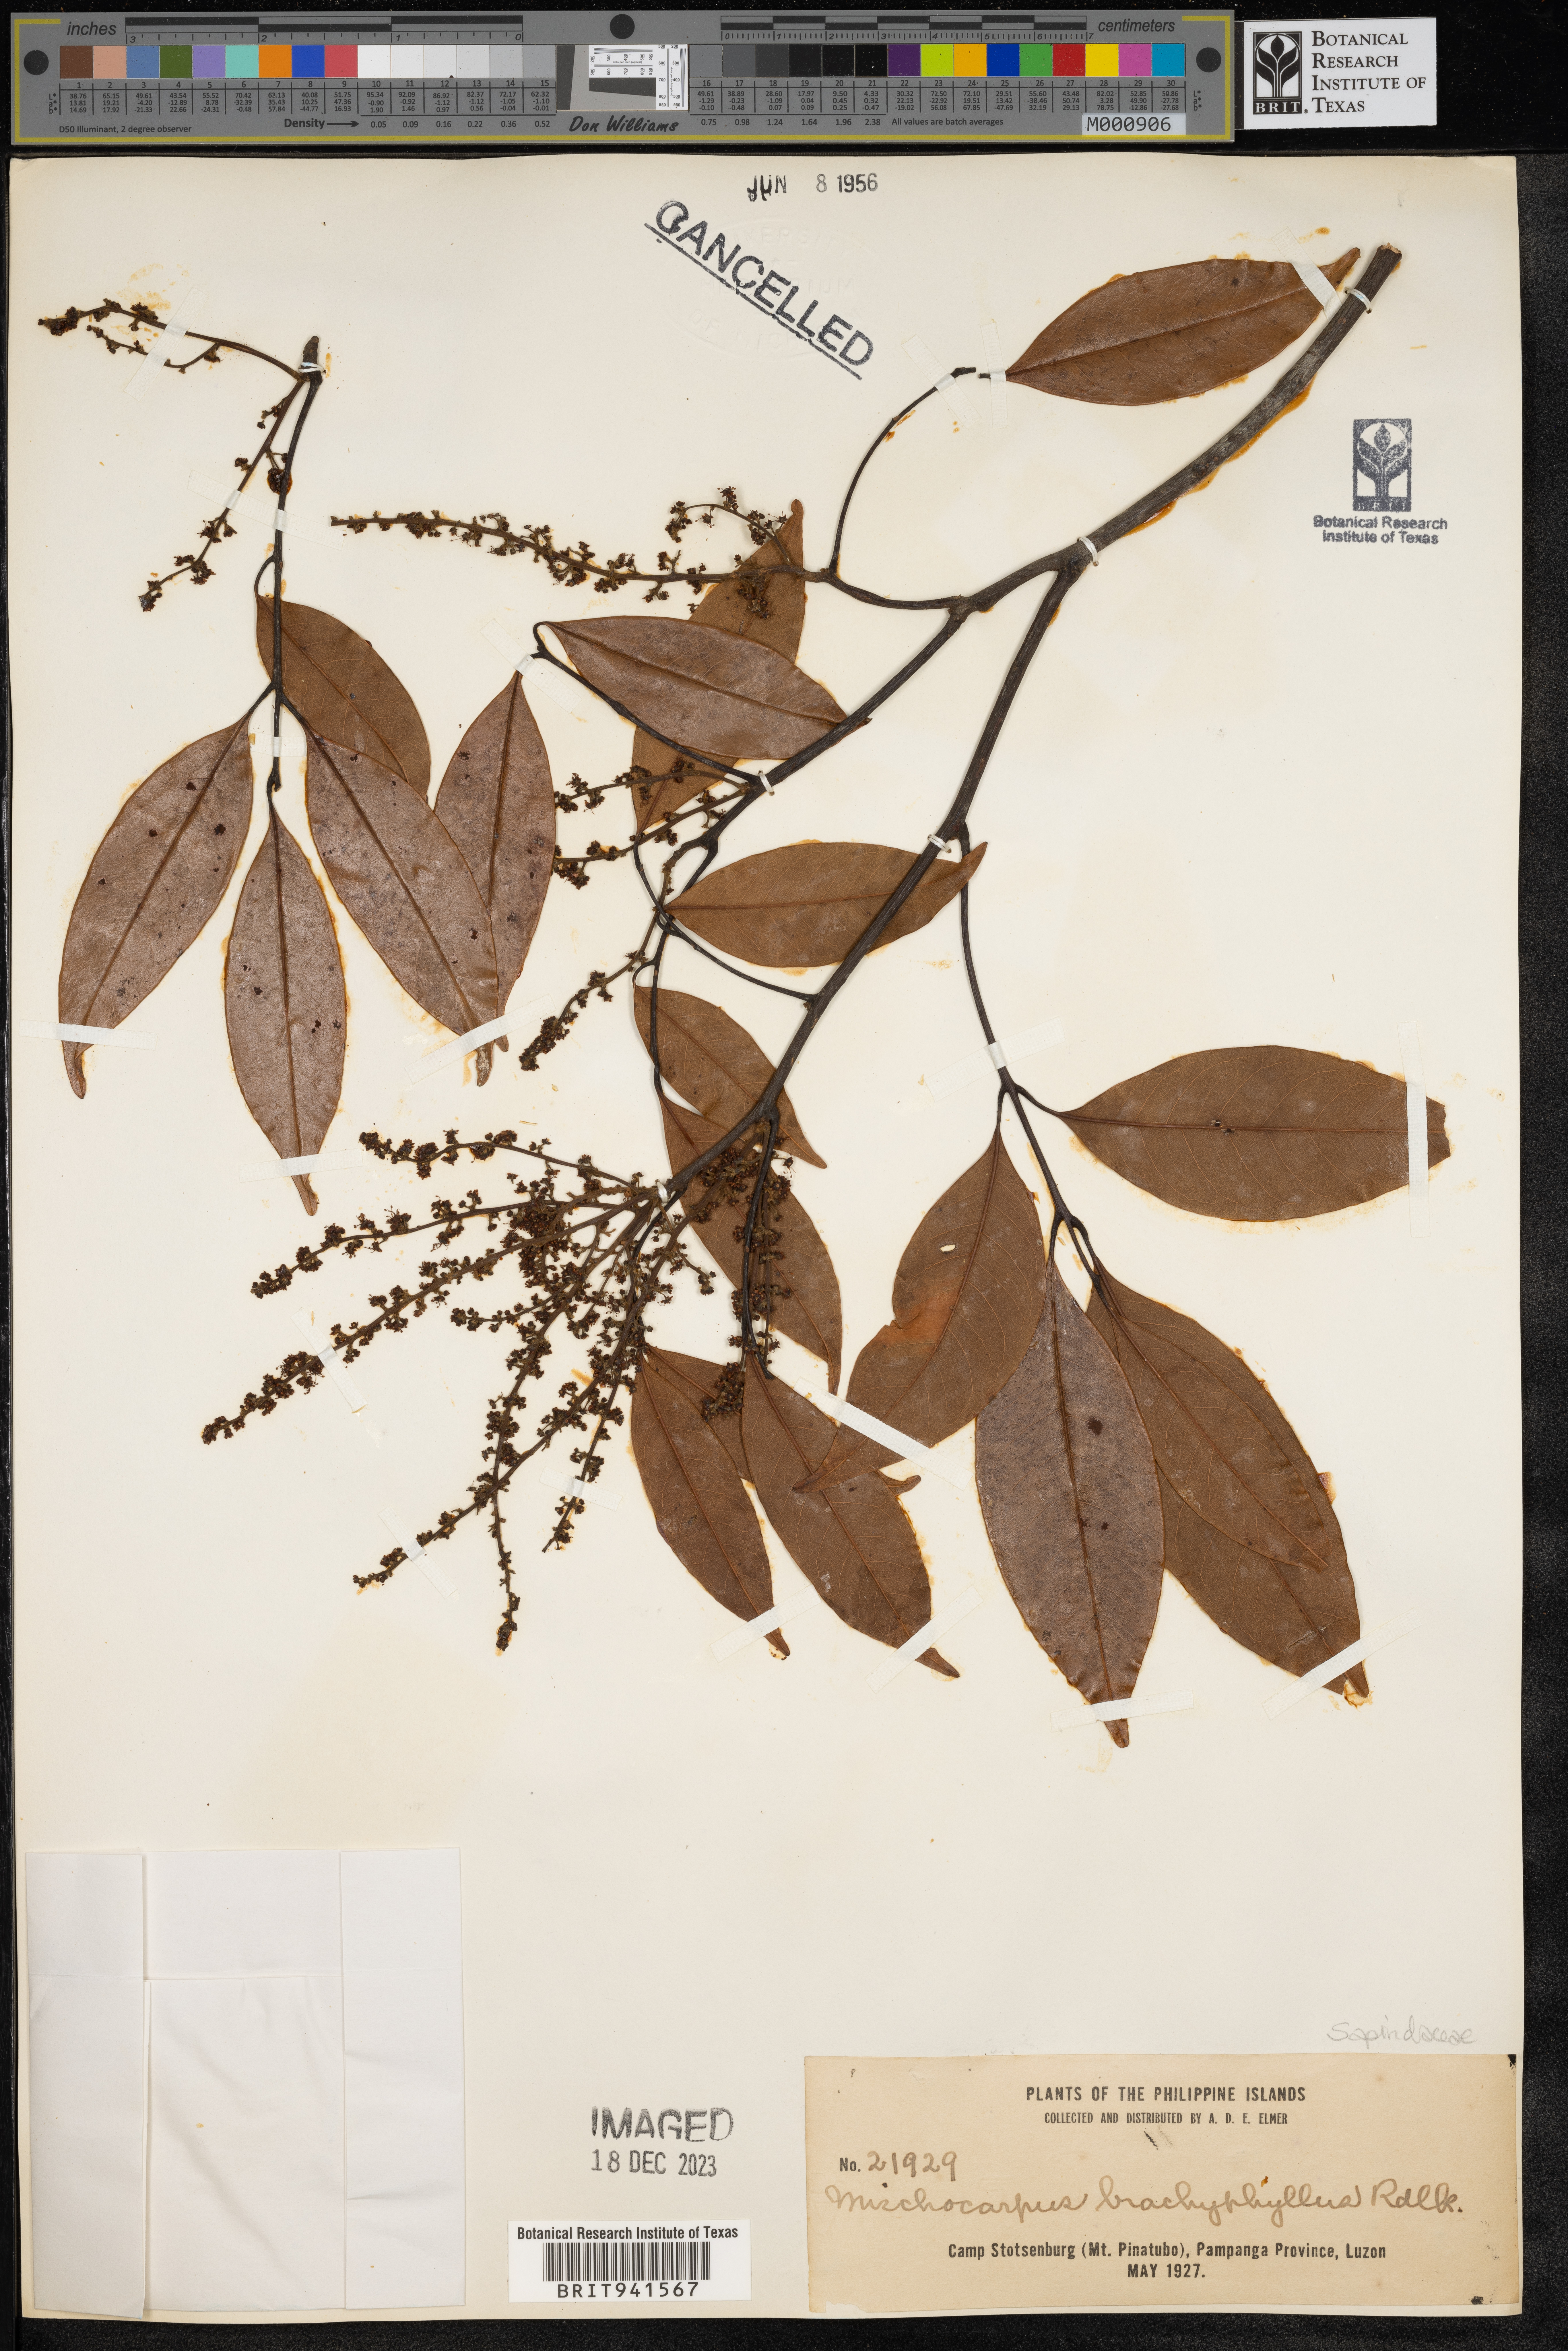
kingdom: Plantae
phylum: Tracheophyta
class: Magnoliopsida
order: Sapindales
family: Sapindaceae
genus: Mischocarpus
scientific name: Mischocarpus
